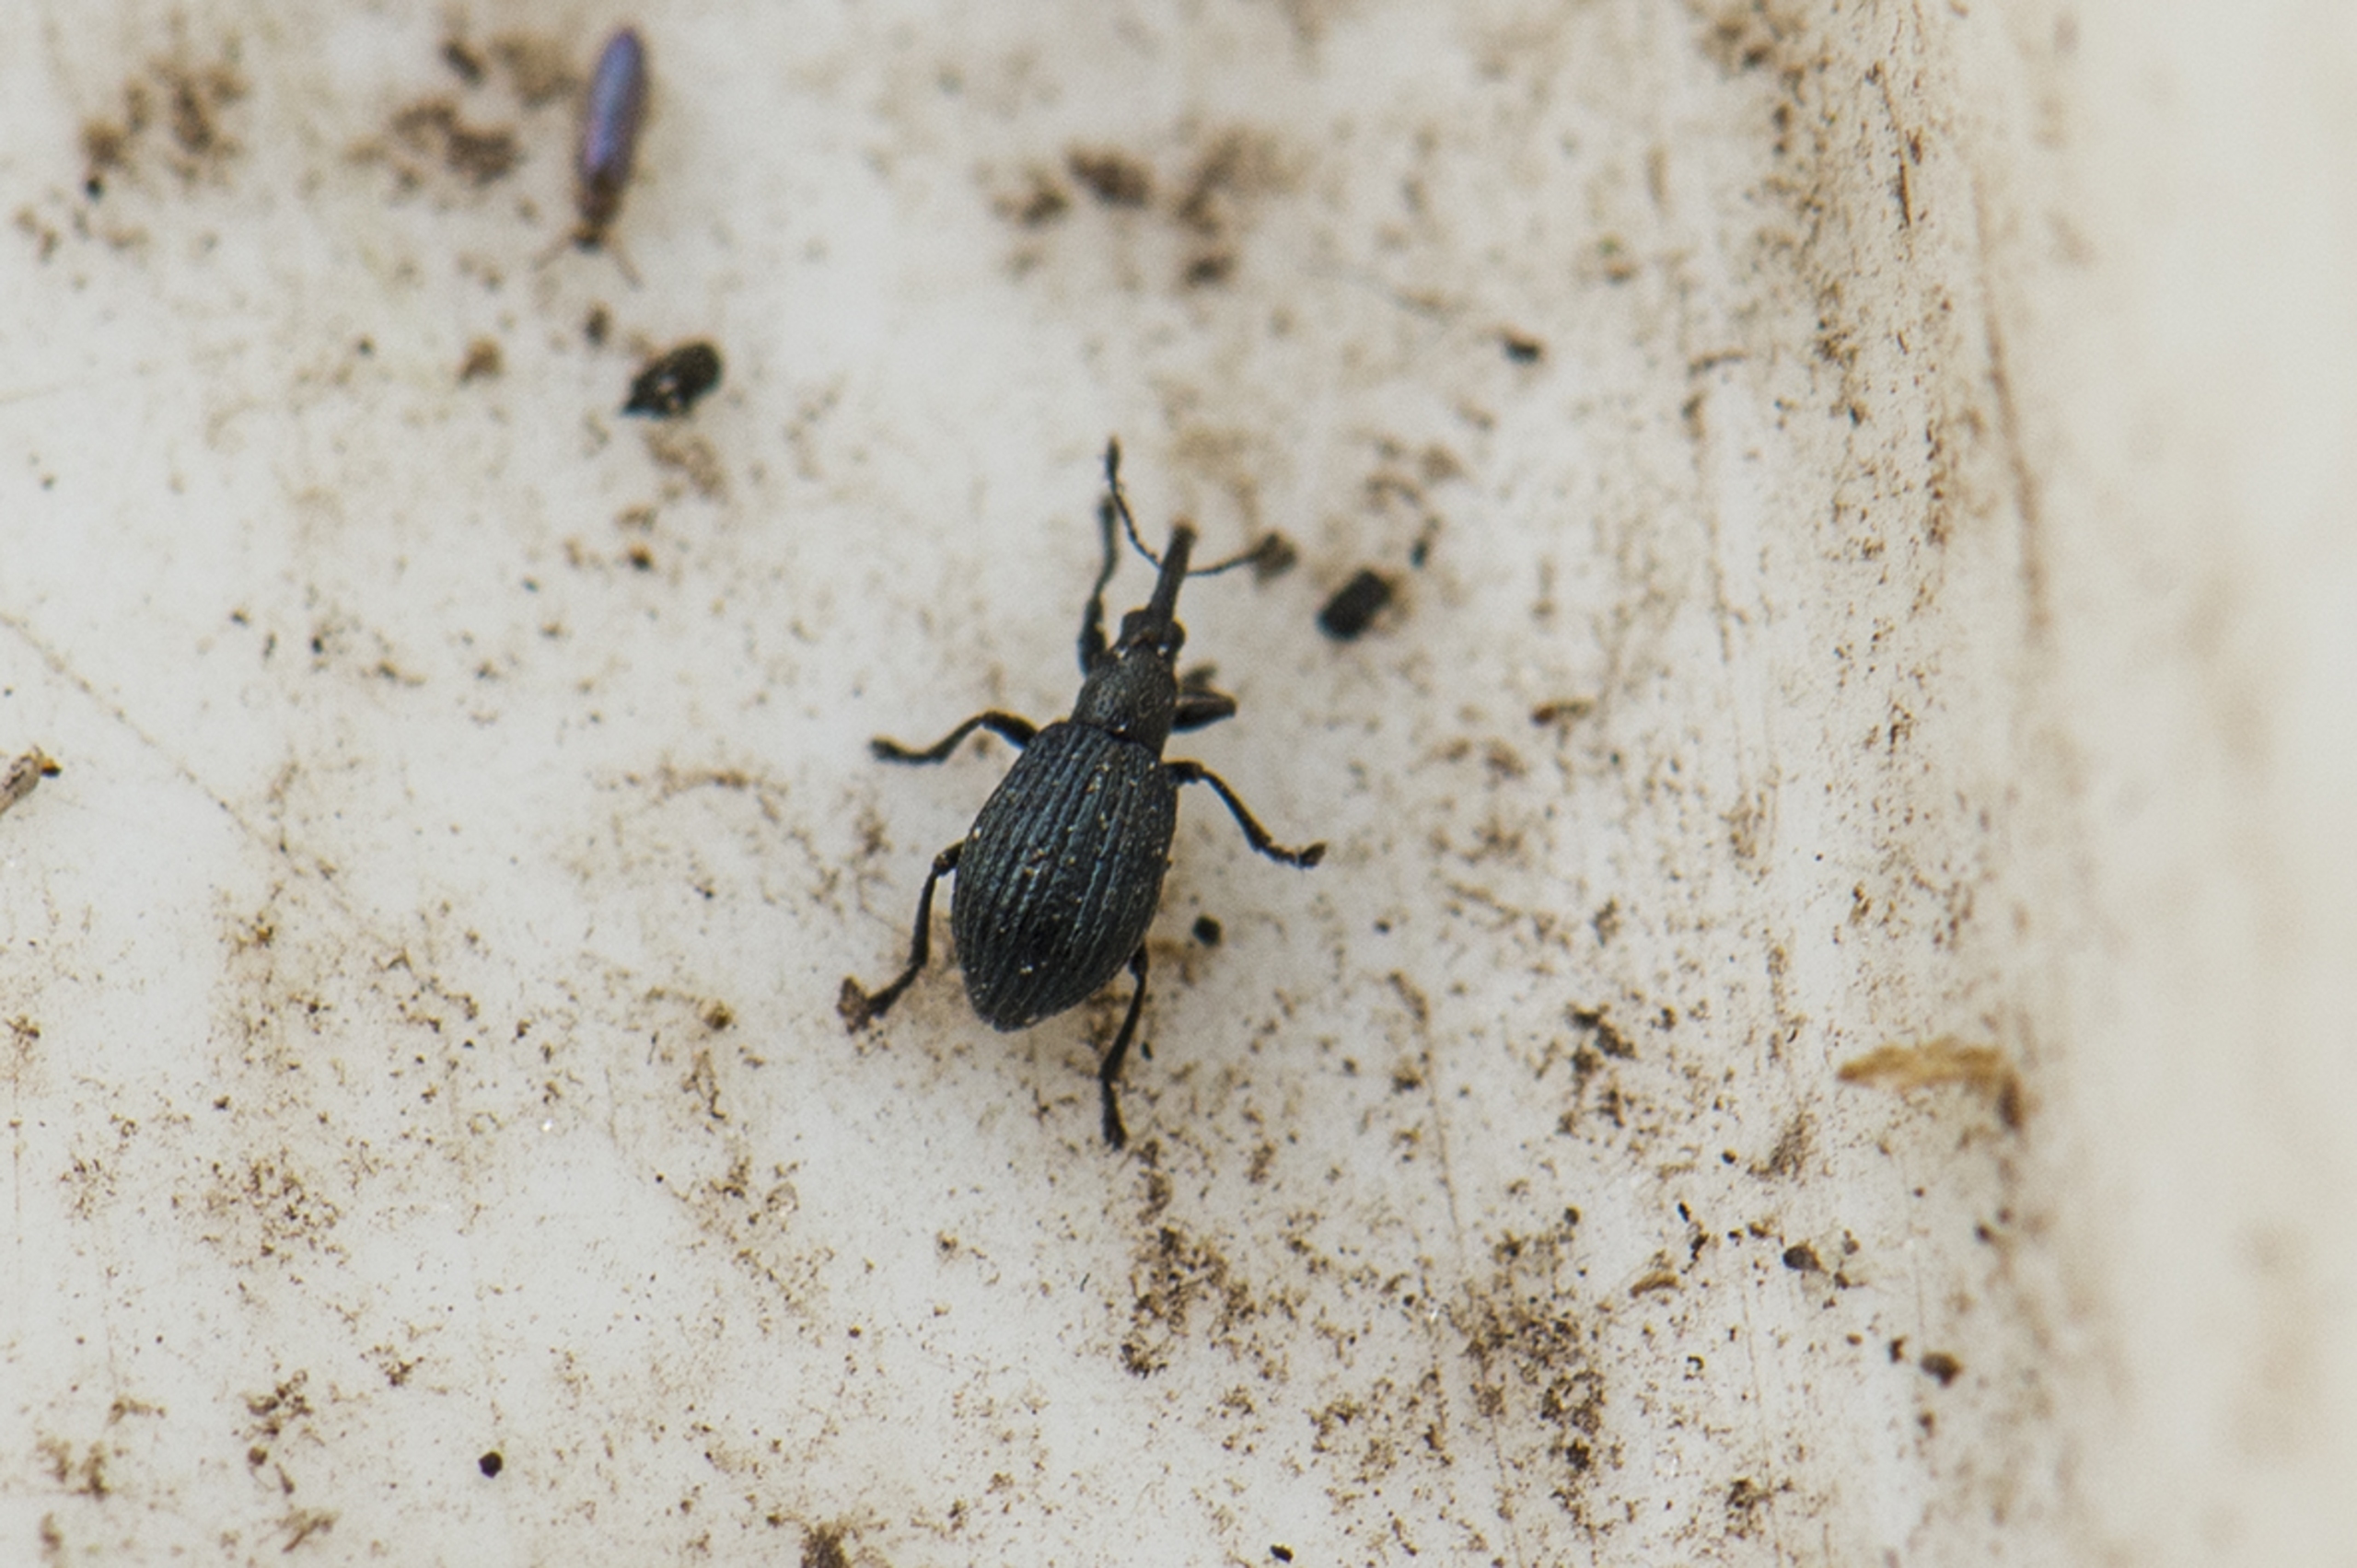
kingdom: Animalia
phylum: Arthropoda
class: Insecta
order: Coleoptera
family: Apionidae
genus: Ischnopterapion
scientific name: Ischnopterapion virens
